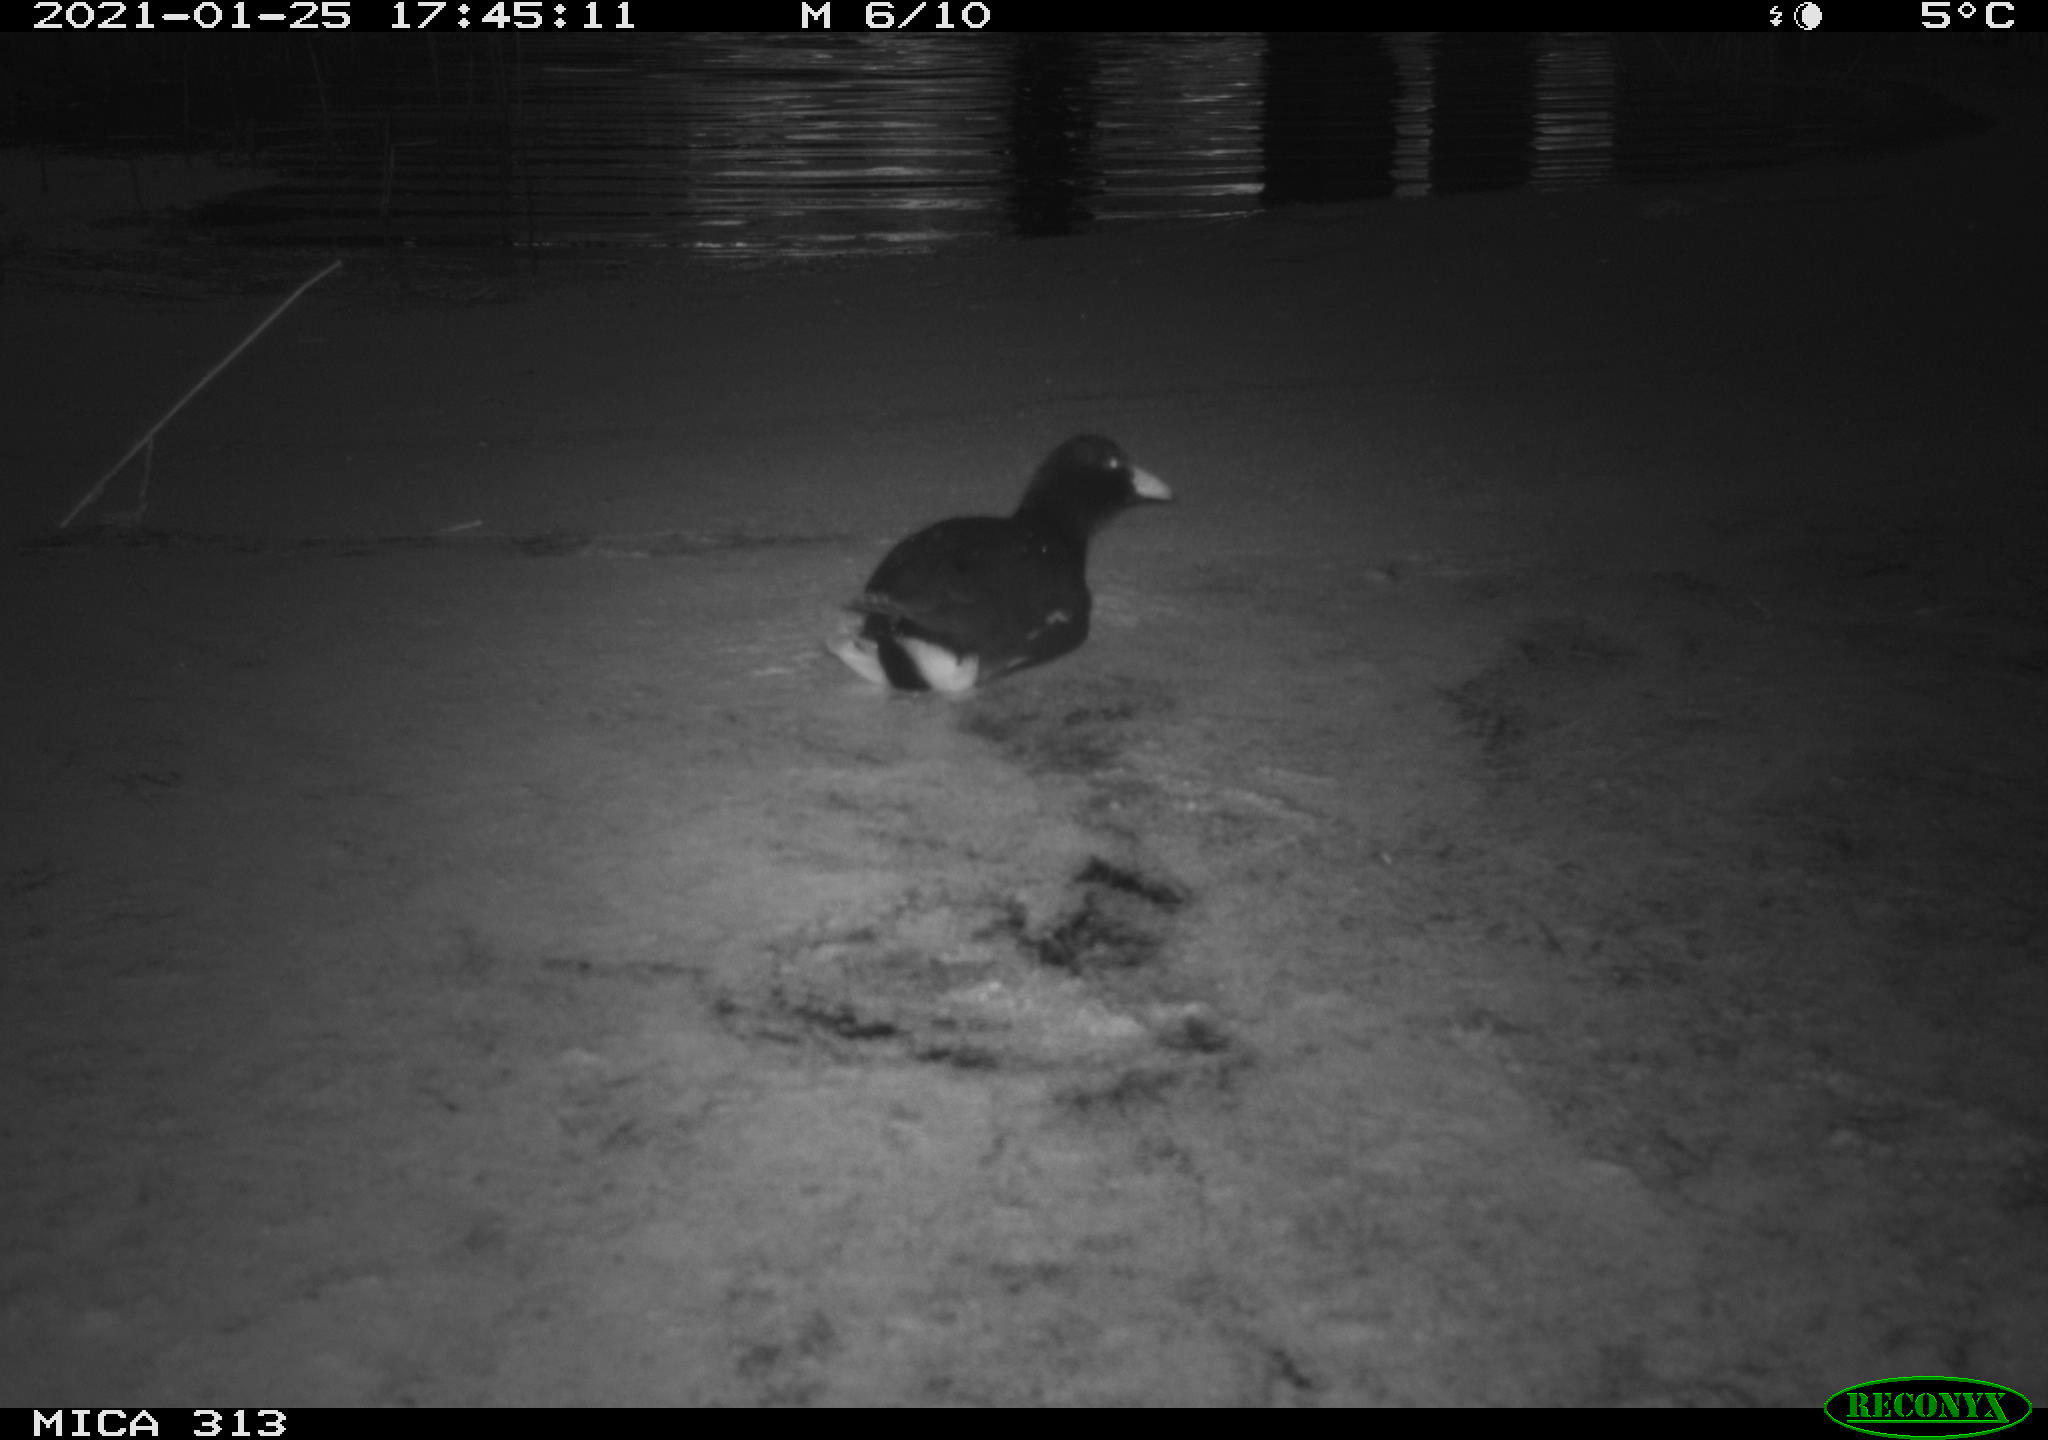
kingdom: Animalia
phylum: Chordata
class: Aves
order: Gruiformes
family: Rallidae
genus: Gallinula
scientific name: Gallinula chloropus
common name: Common moorhen
